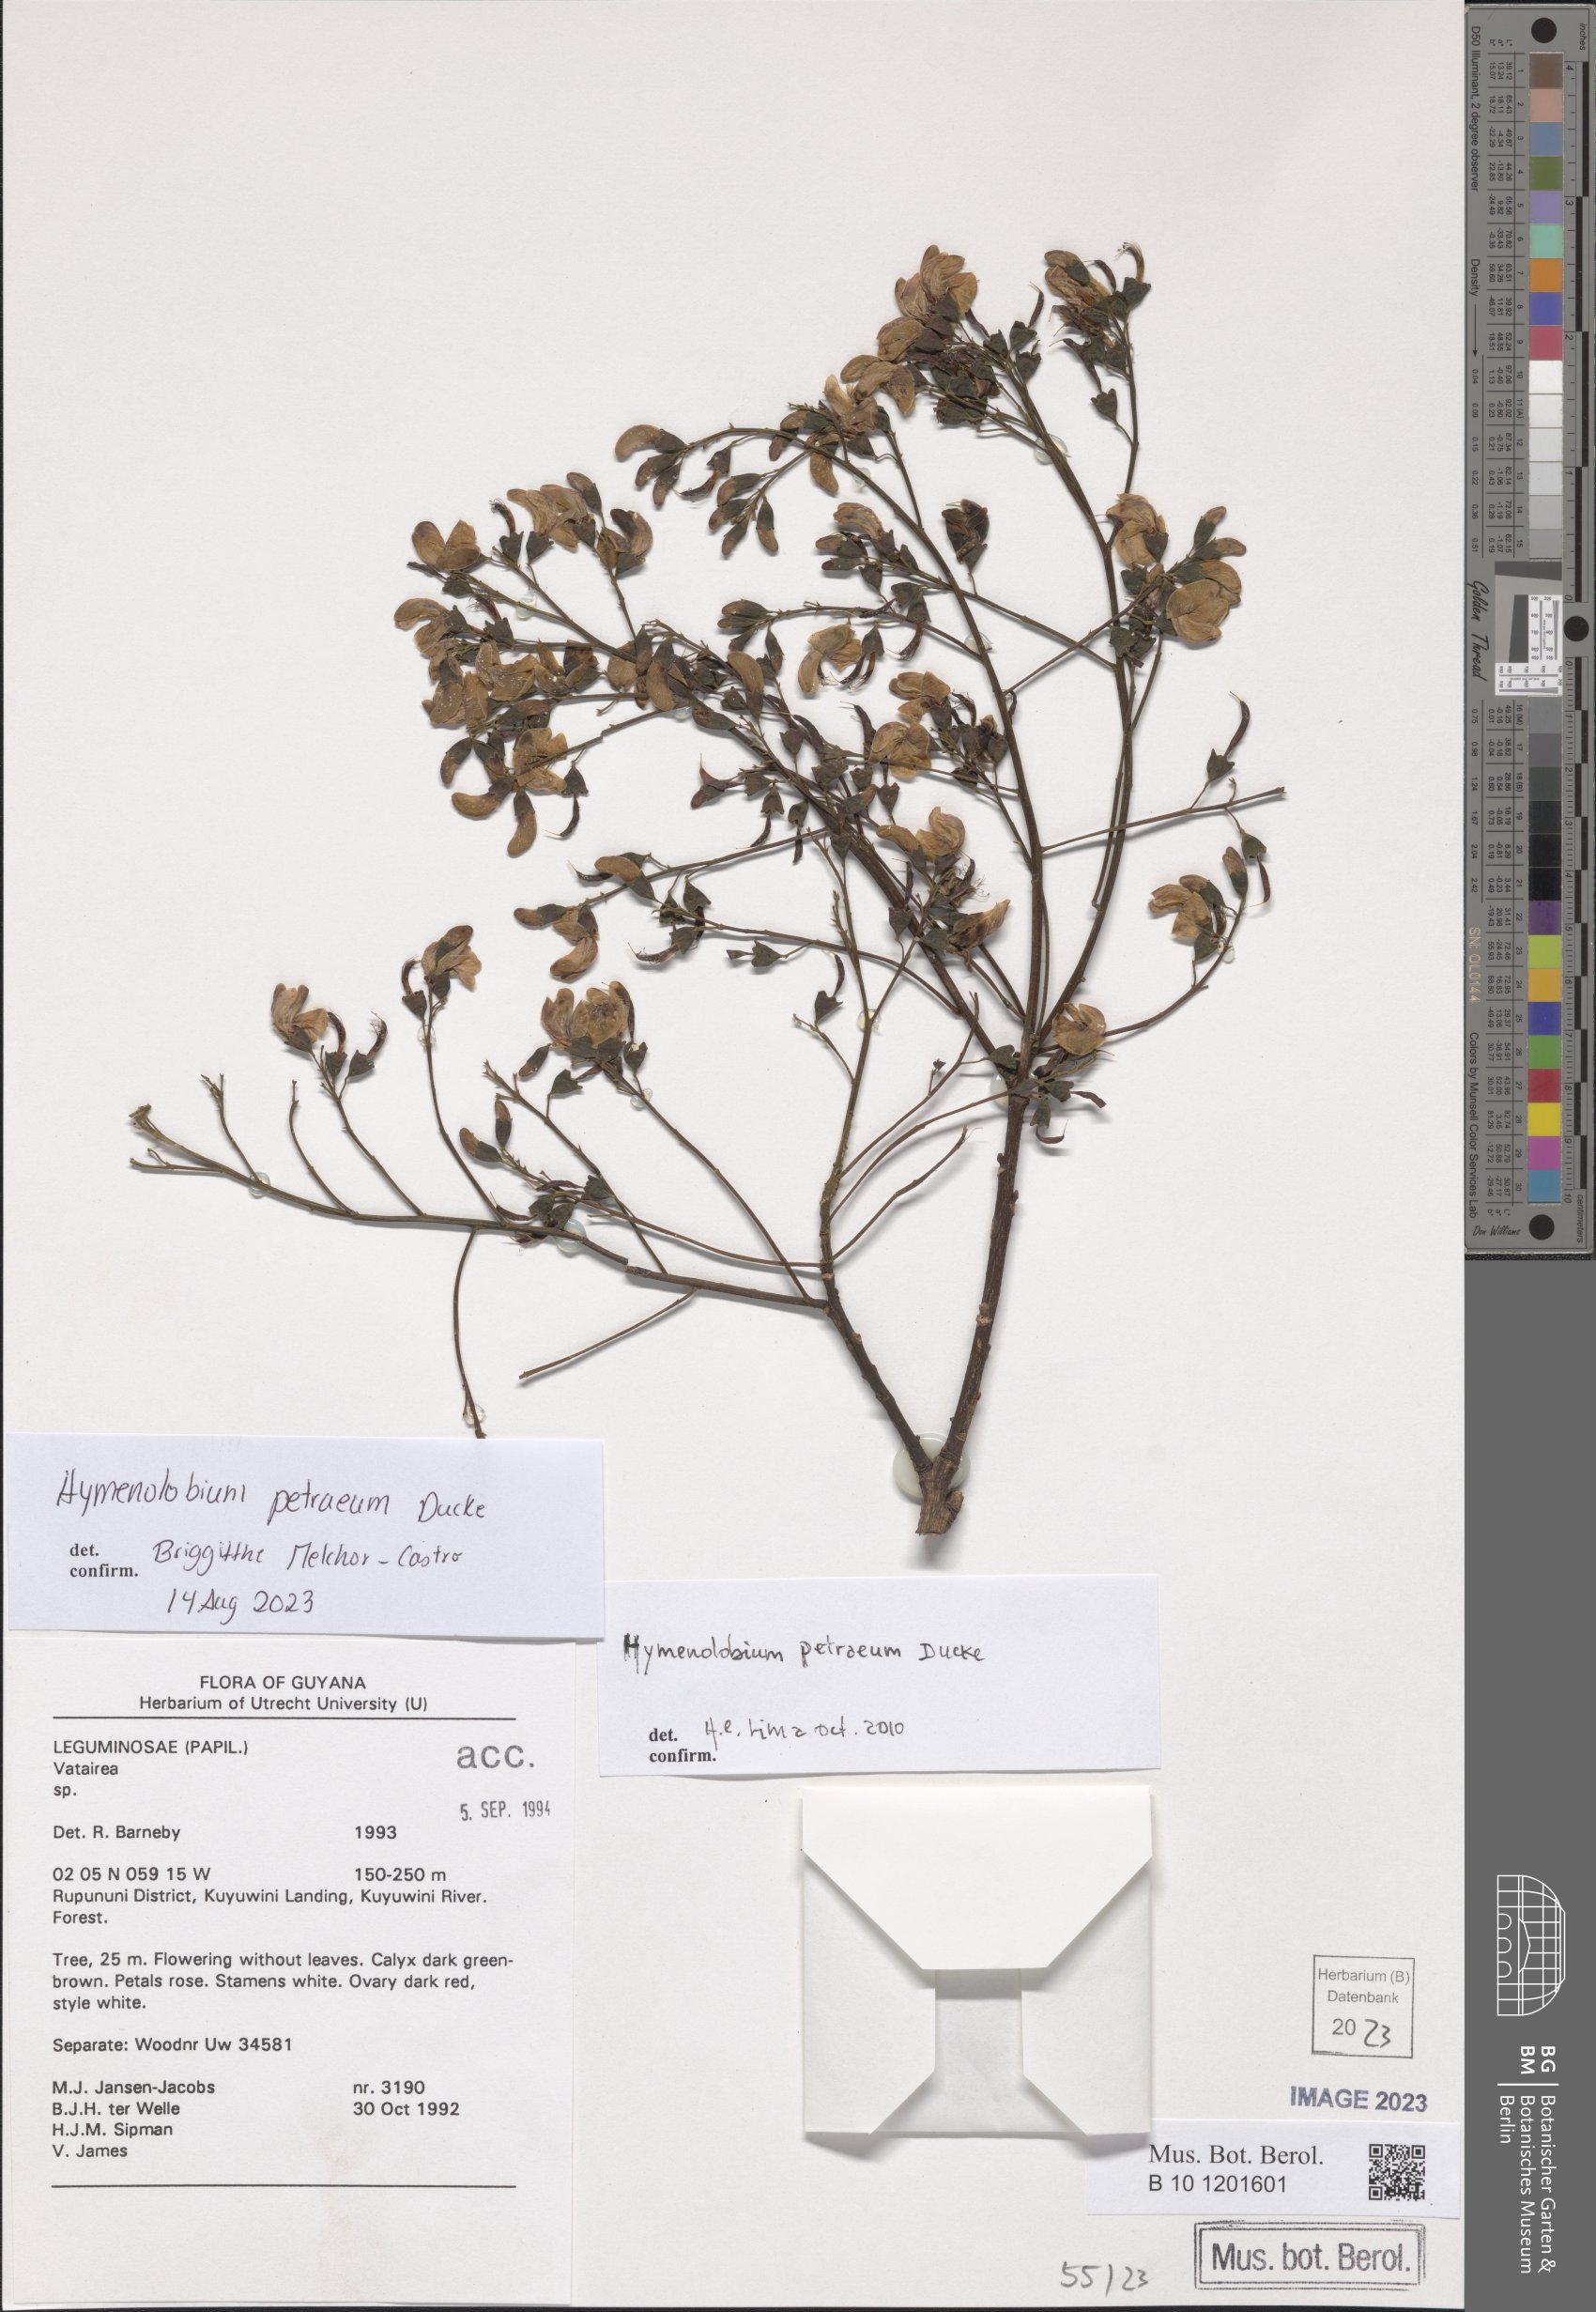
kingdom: Plantae
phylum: Tracheophyta
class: Magnoliopsida
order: Fabales
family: Fabaceae
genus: Hymenolobium
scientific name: Hymenolobium petraeum
